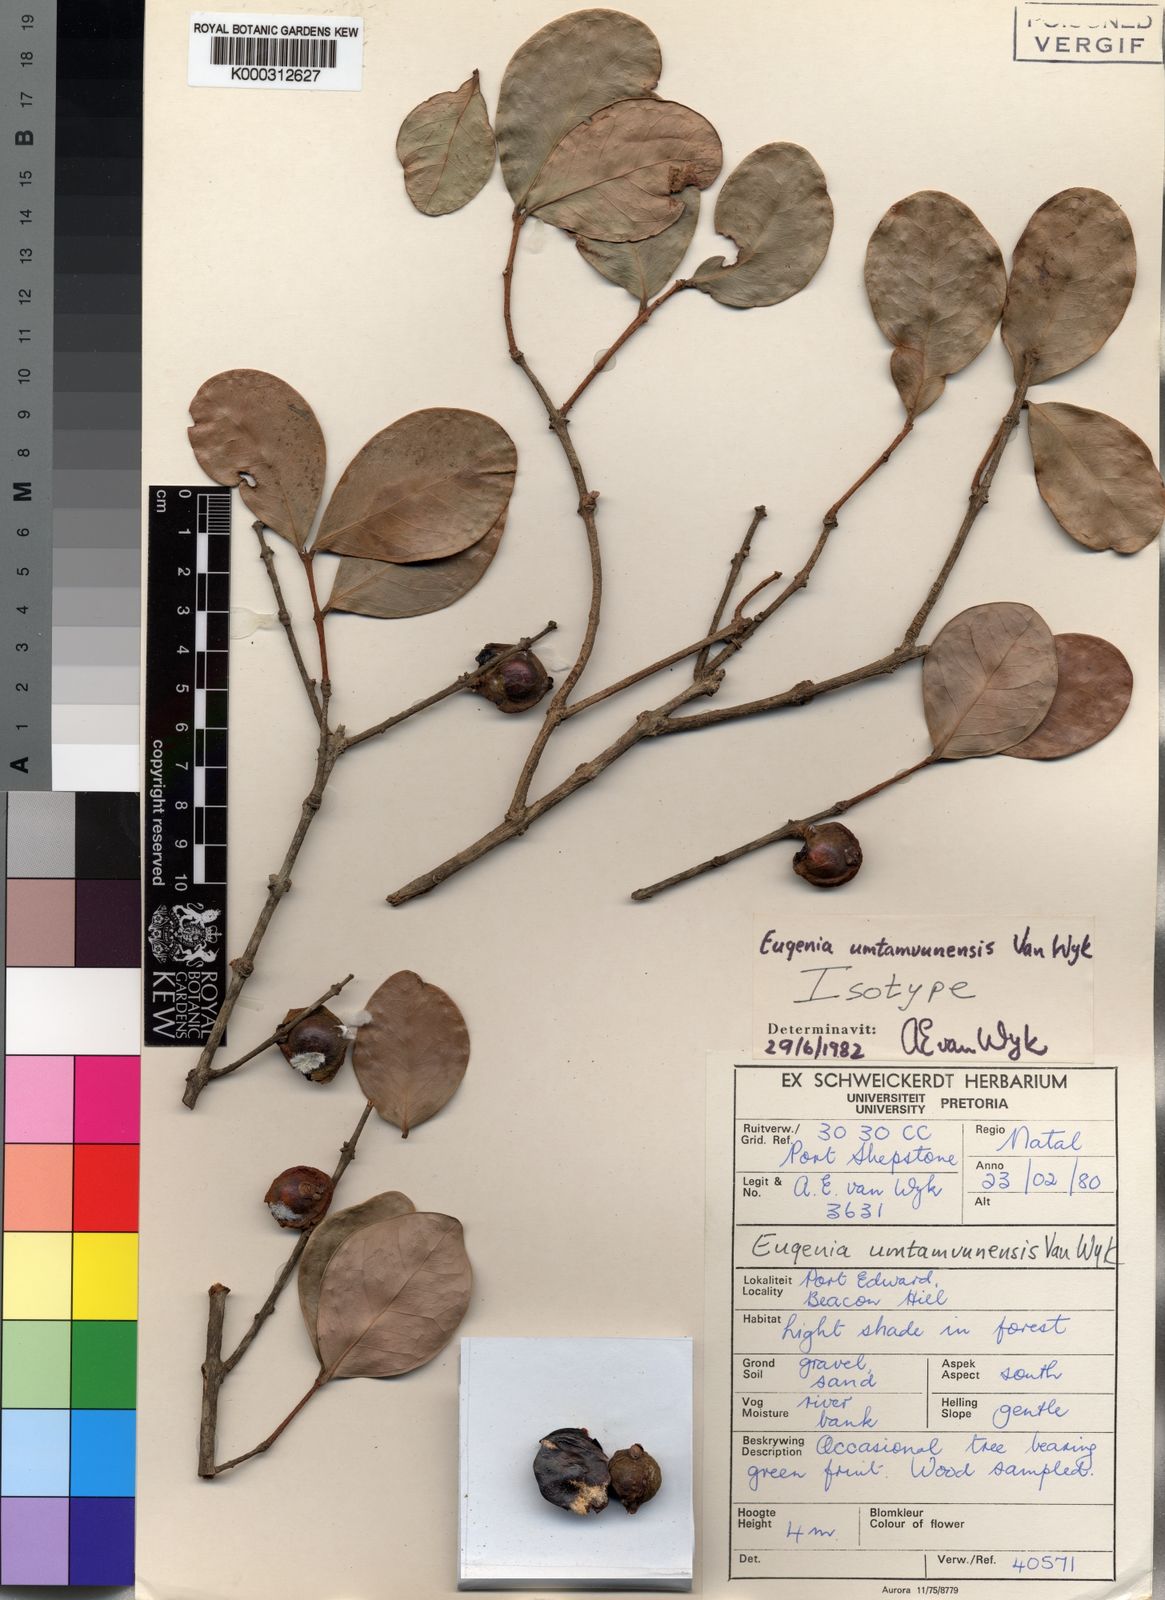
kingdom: Plantae
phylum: Tracheophyta
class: Magnoliopsida
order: Myrtales
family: Myrtaceae
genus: Eugenia
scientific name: Eugenia umtamvunensis
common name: Thick-leaved forest myrtle
